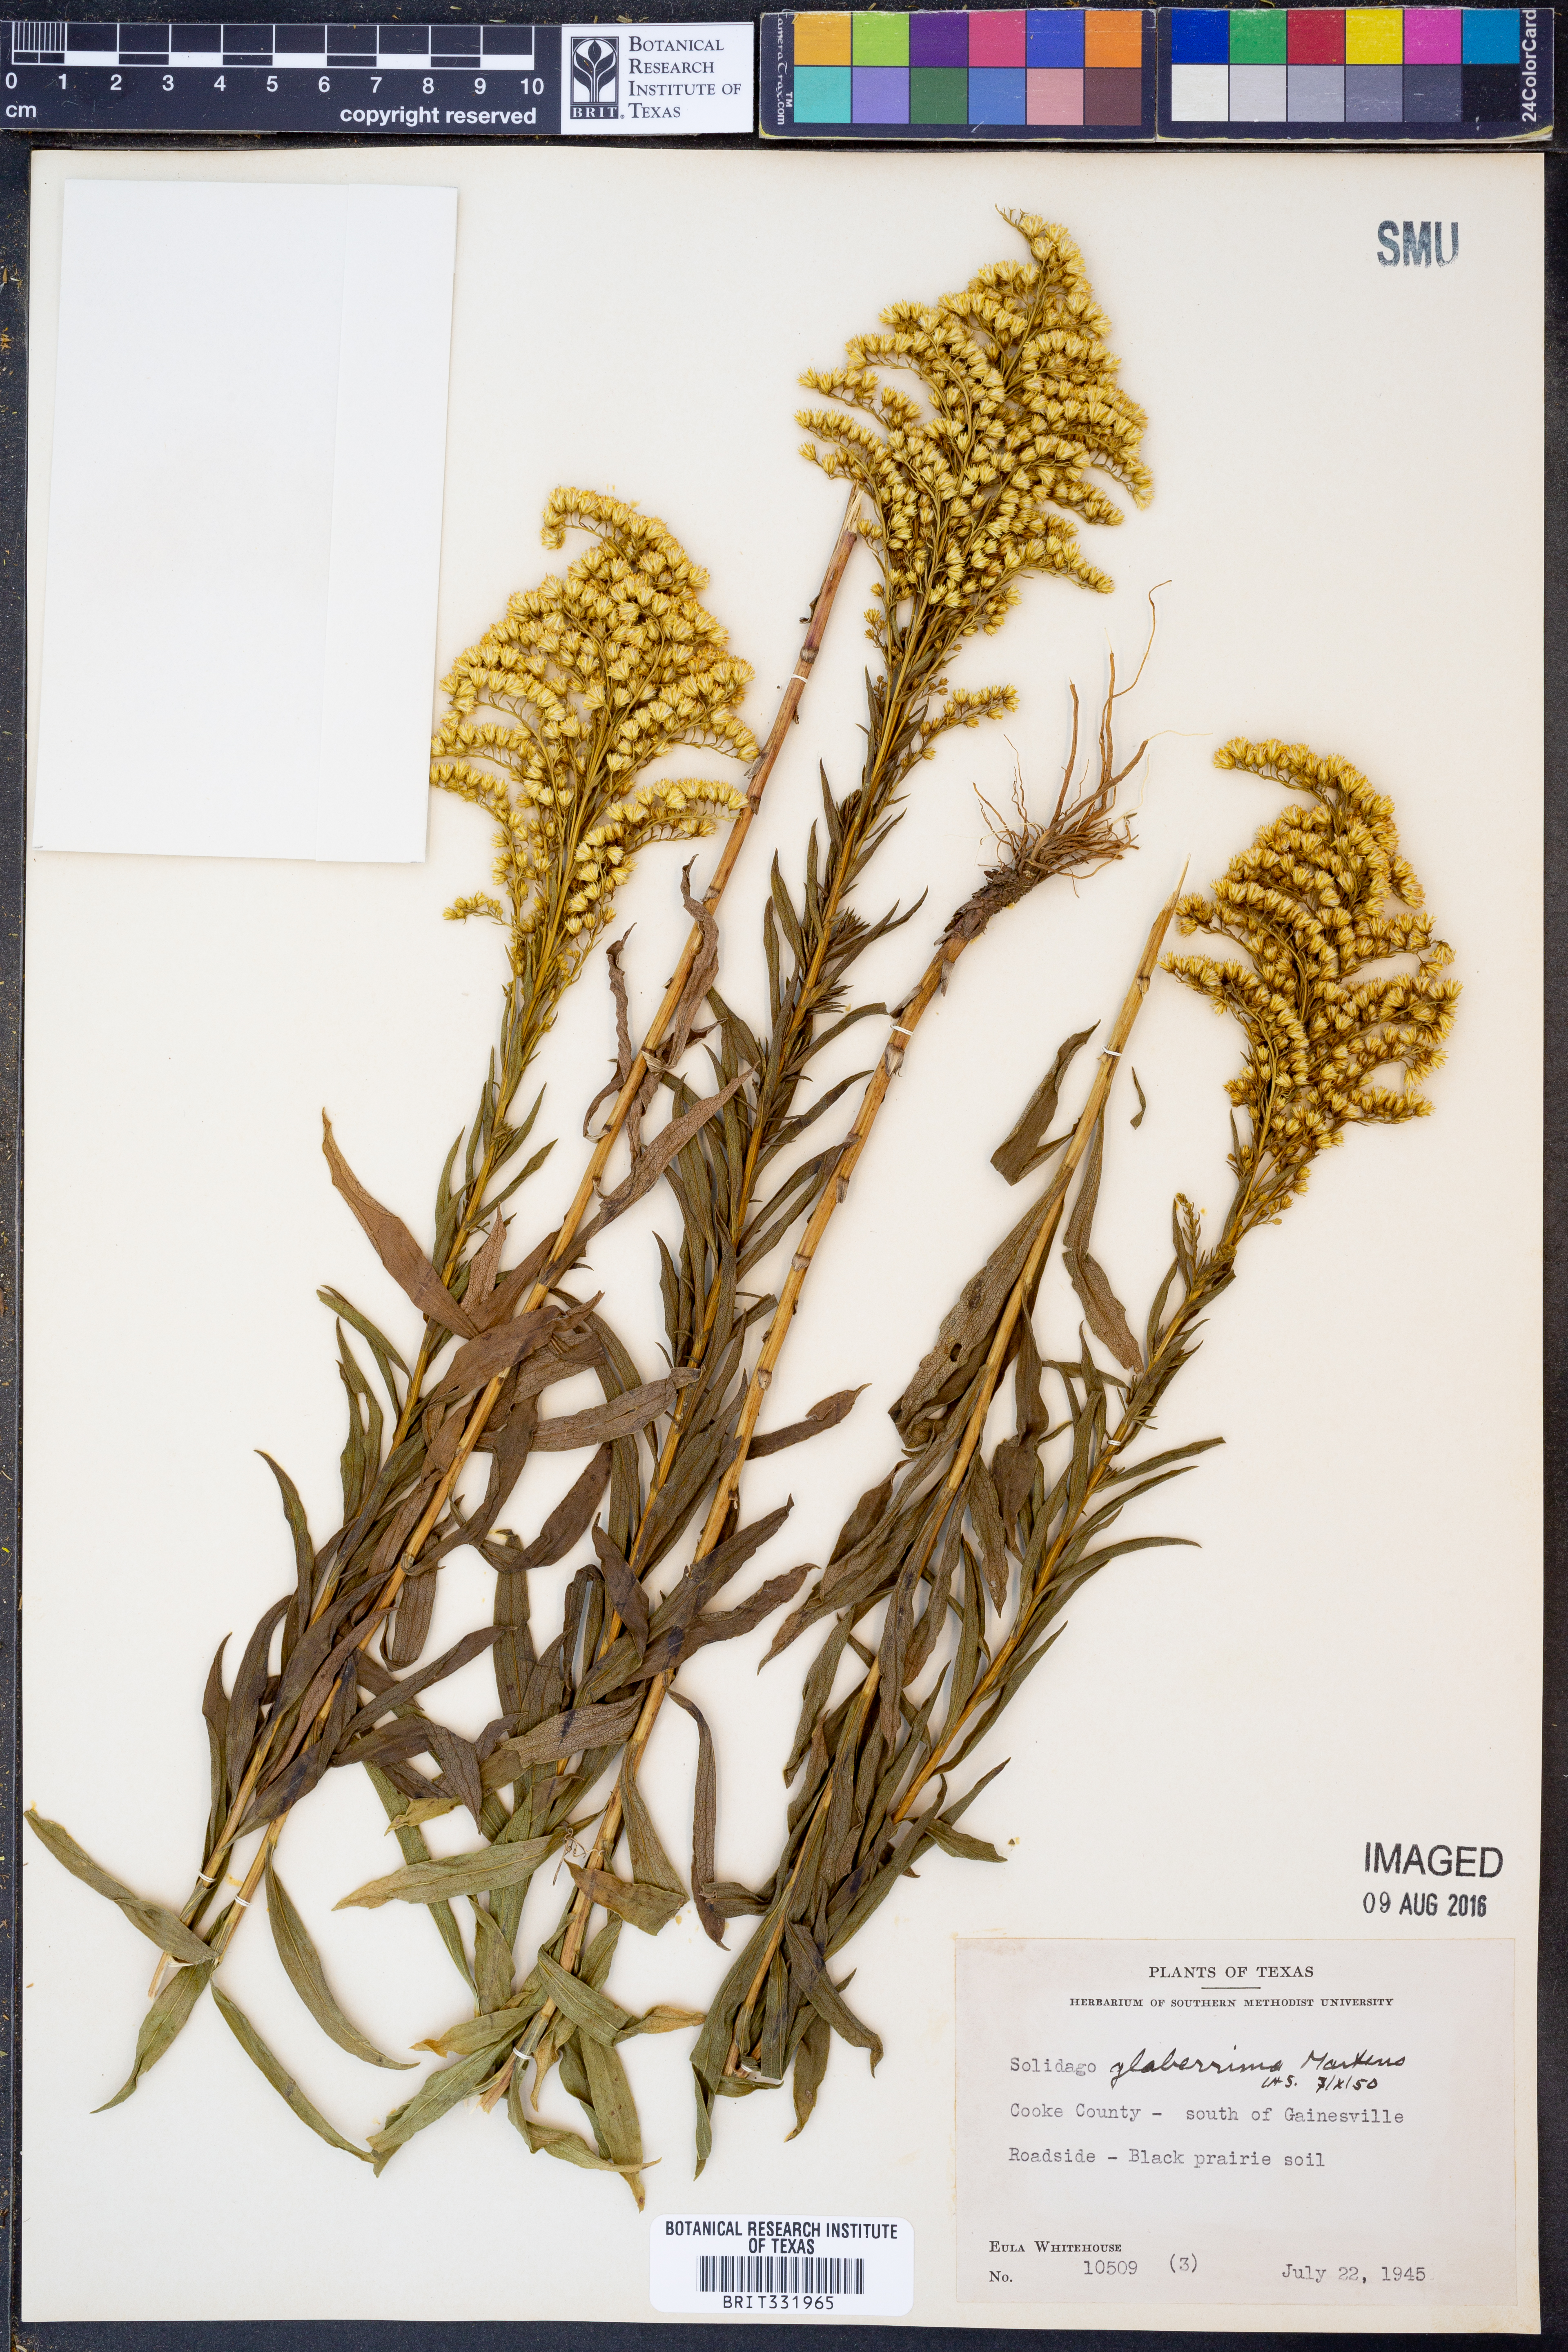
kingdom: Plantae
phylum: Tracheophyta
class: Magnoliopsida
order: Asterales
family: Asteraceae
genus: Solidago
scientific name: Solidago missouriensis
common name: Prairie goldenrod
